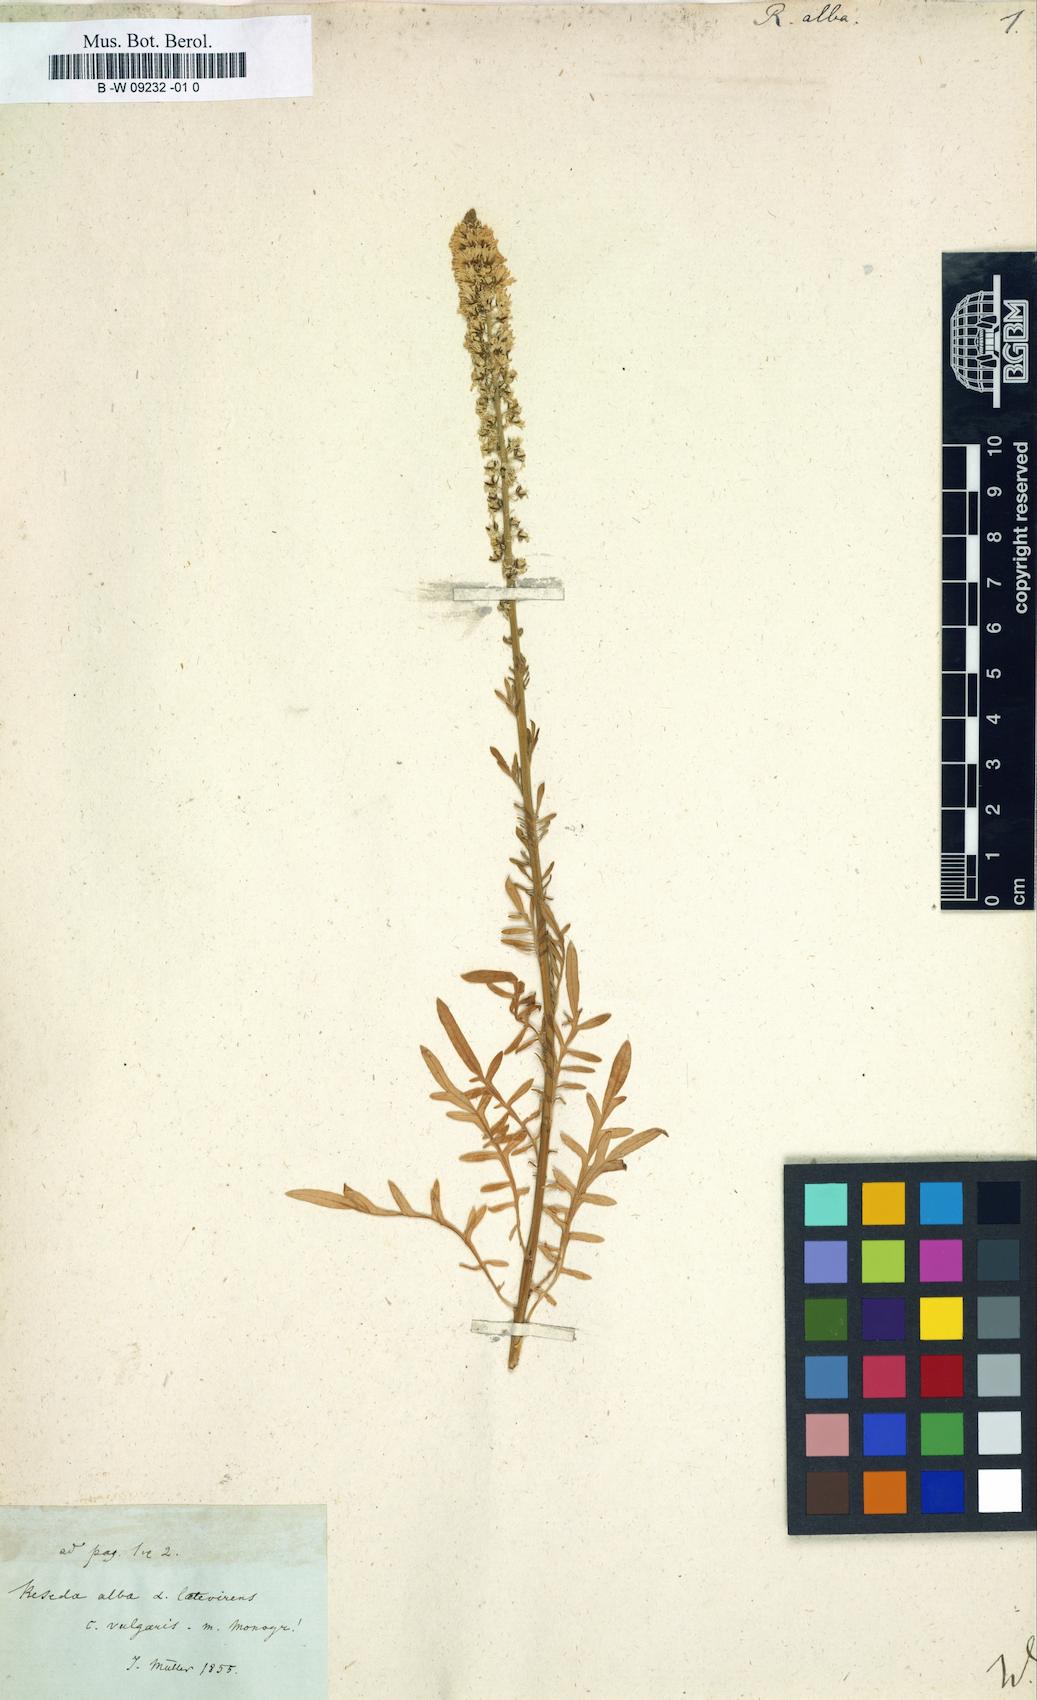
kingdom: Plantae
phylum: Tracheophyta
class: Magnoliopsida
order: Brassicales
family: Resedaceae
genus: Reseda
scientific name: Reseda alba
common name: White mignonette
